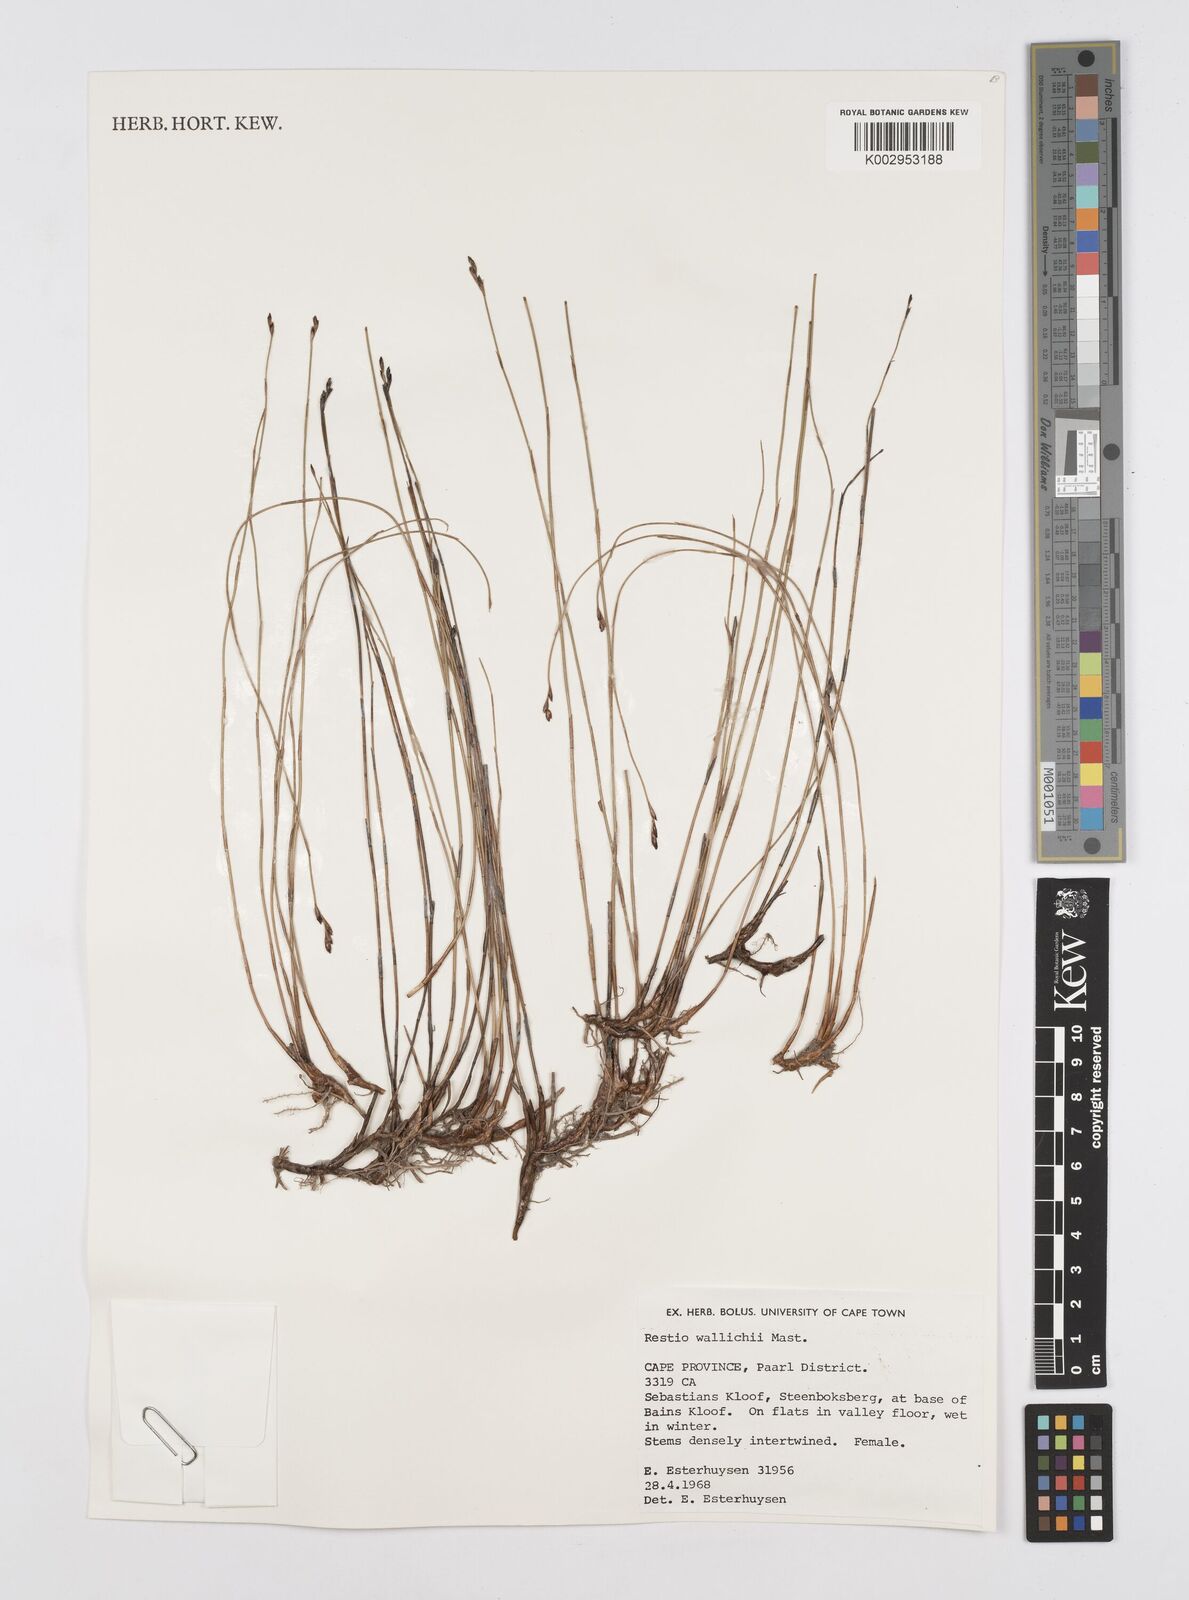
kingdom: Plantae
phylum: Tracheophyta
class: Liliopsida
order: Poales
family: Restionaceae
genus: Restio
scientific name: Restio wallichii
